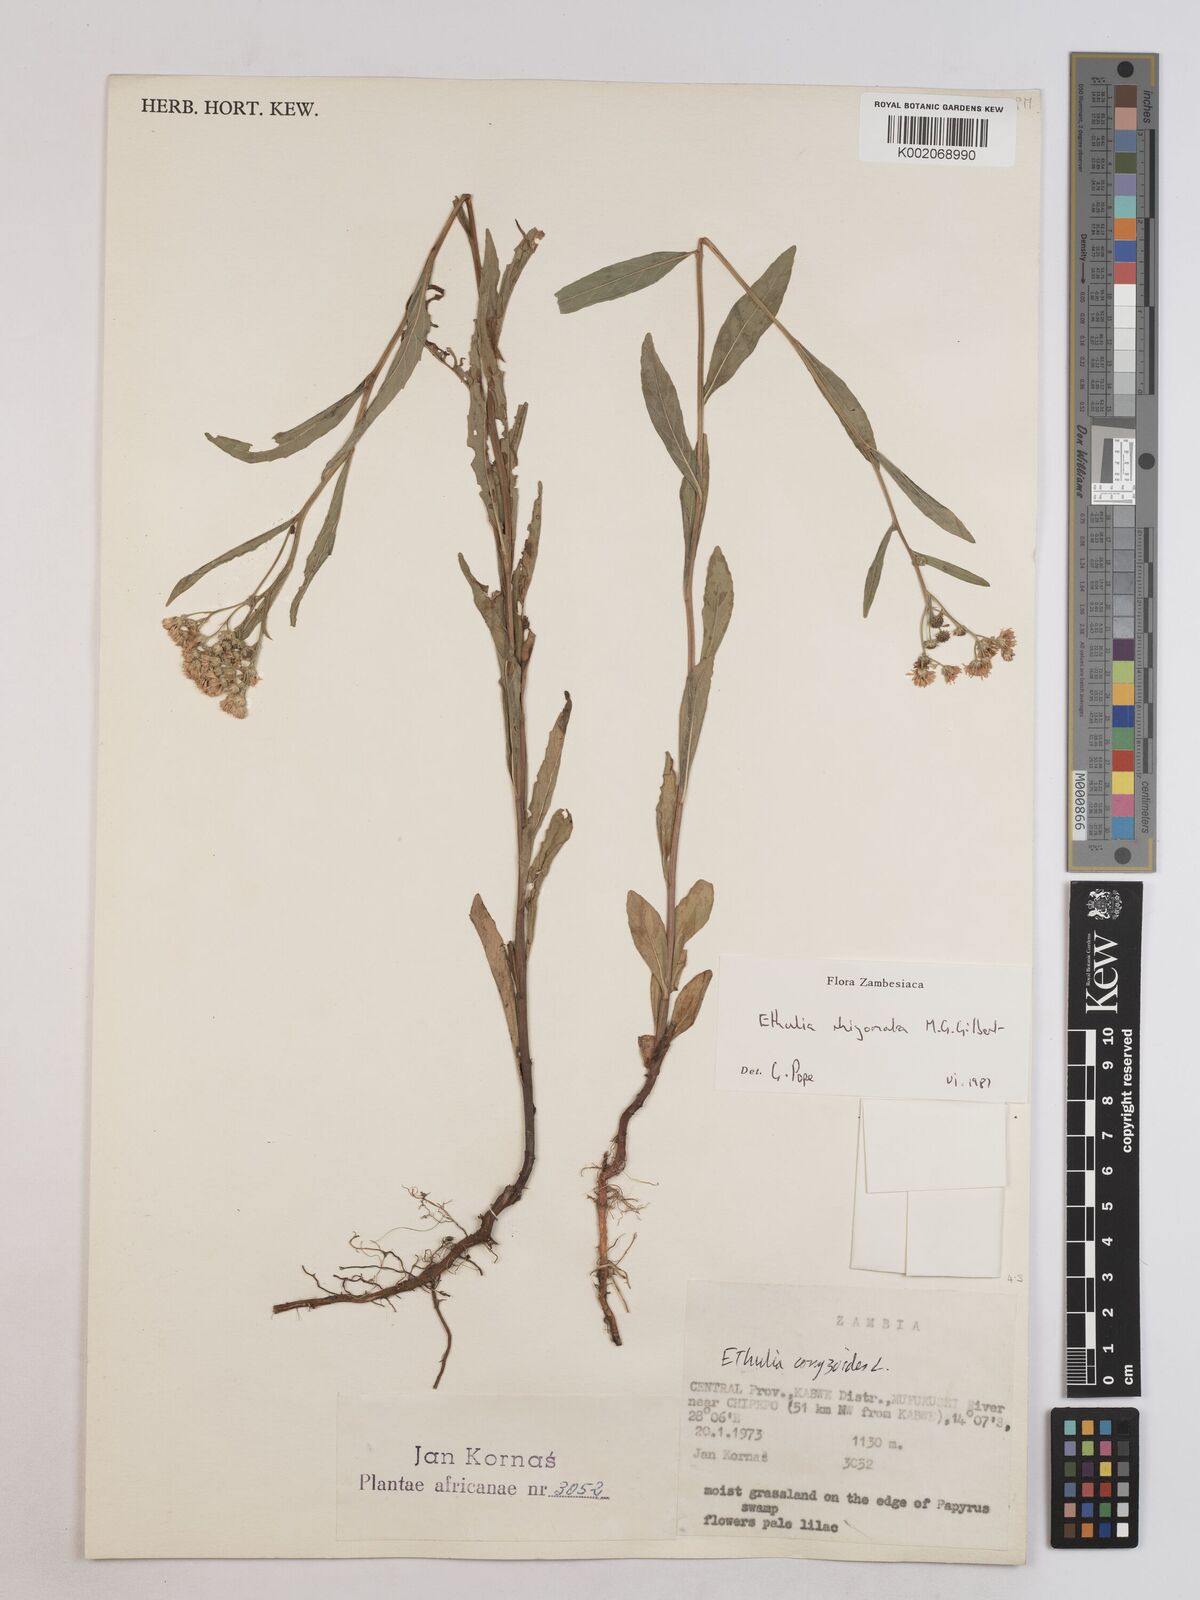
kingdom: Plantae
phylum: Tracheophyta
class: Magnoliopsida
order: Asterales
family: Asteraceae
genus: Ethulia
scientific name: Ethulia rhizomata
